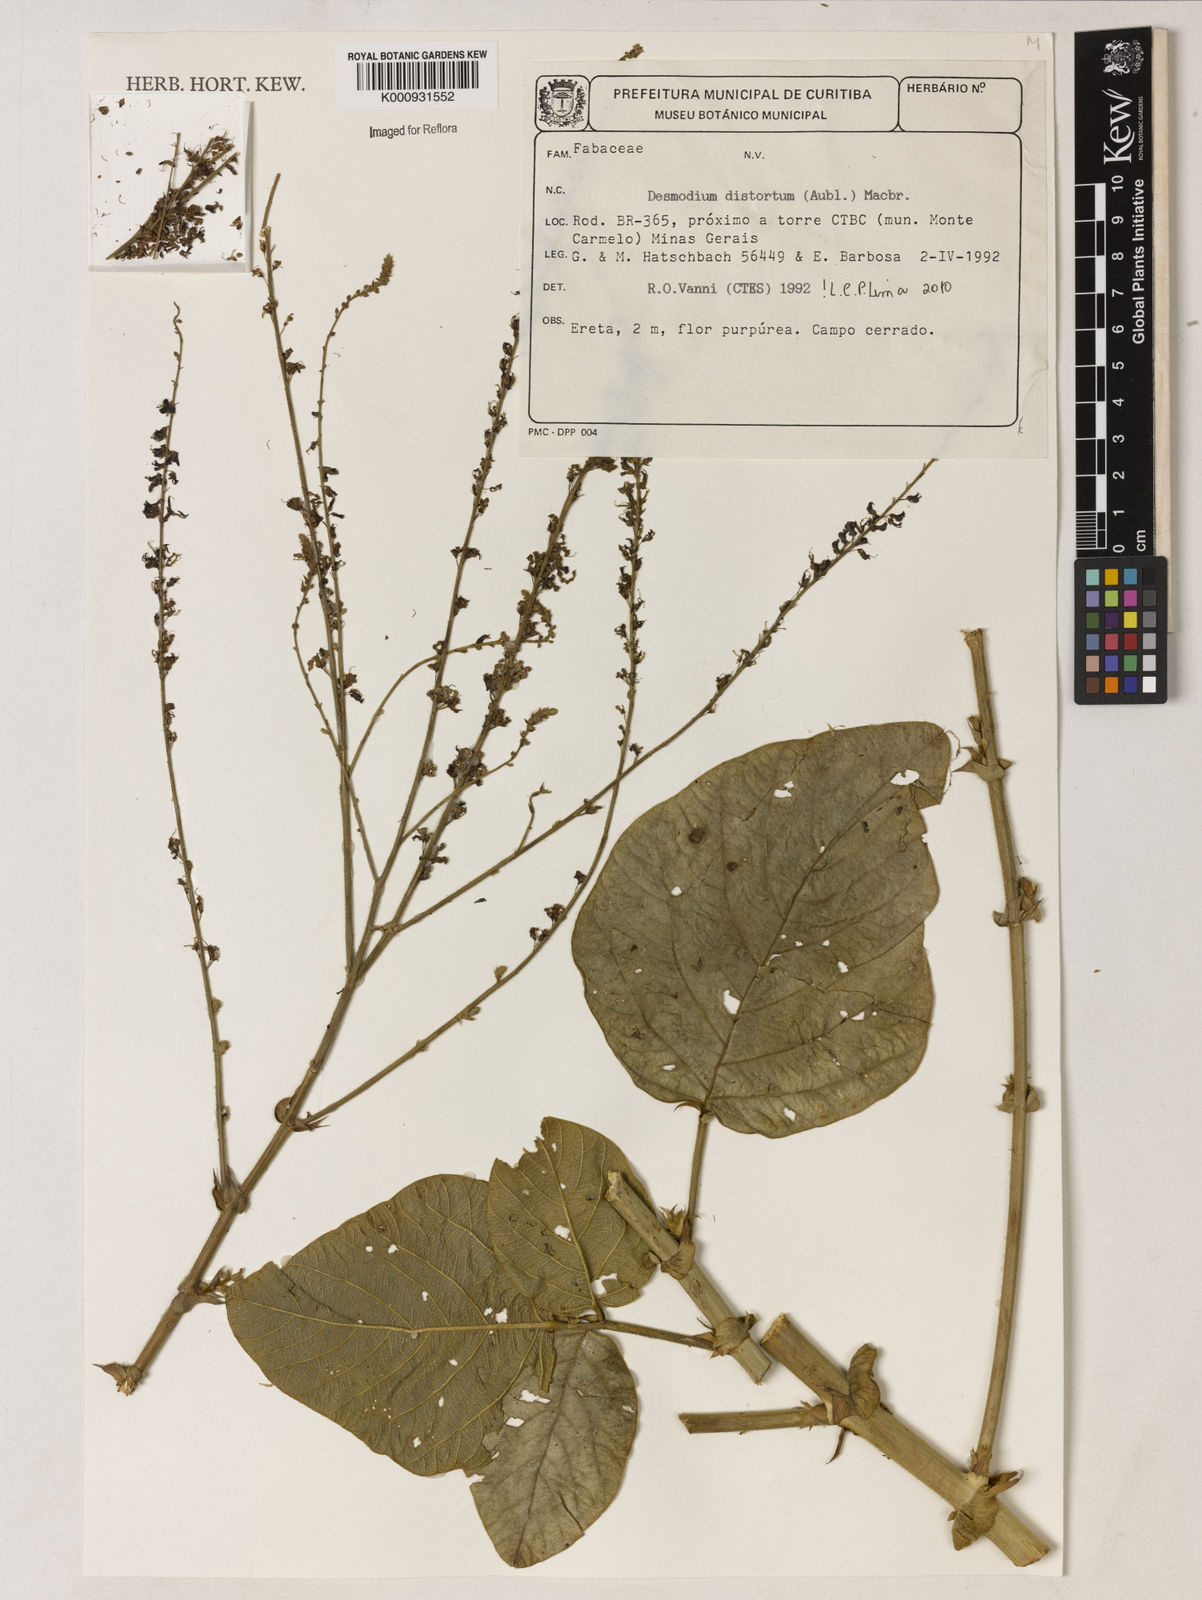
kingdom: Plantae
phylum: Tracheophyta
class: Magnoliopsida
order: Fabales
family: Fabaceae
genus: Desmodium
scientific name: Desmodium distortum
